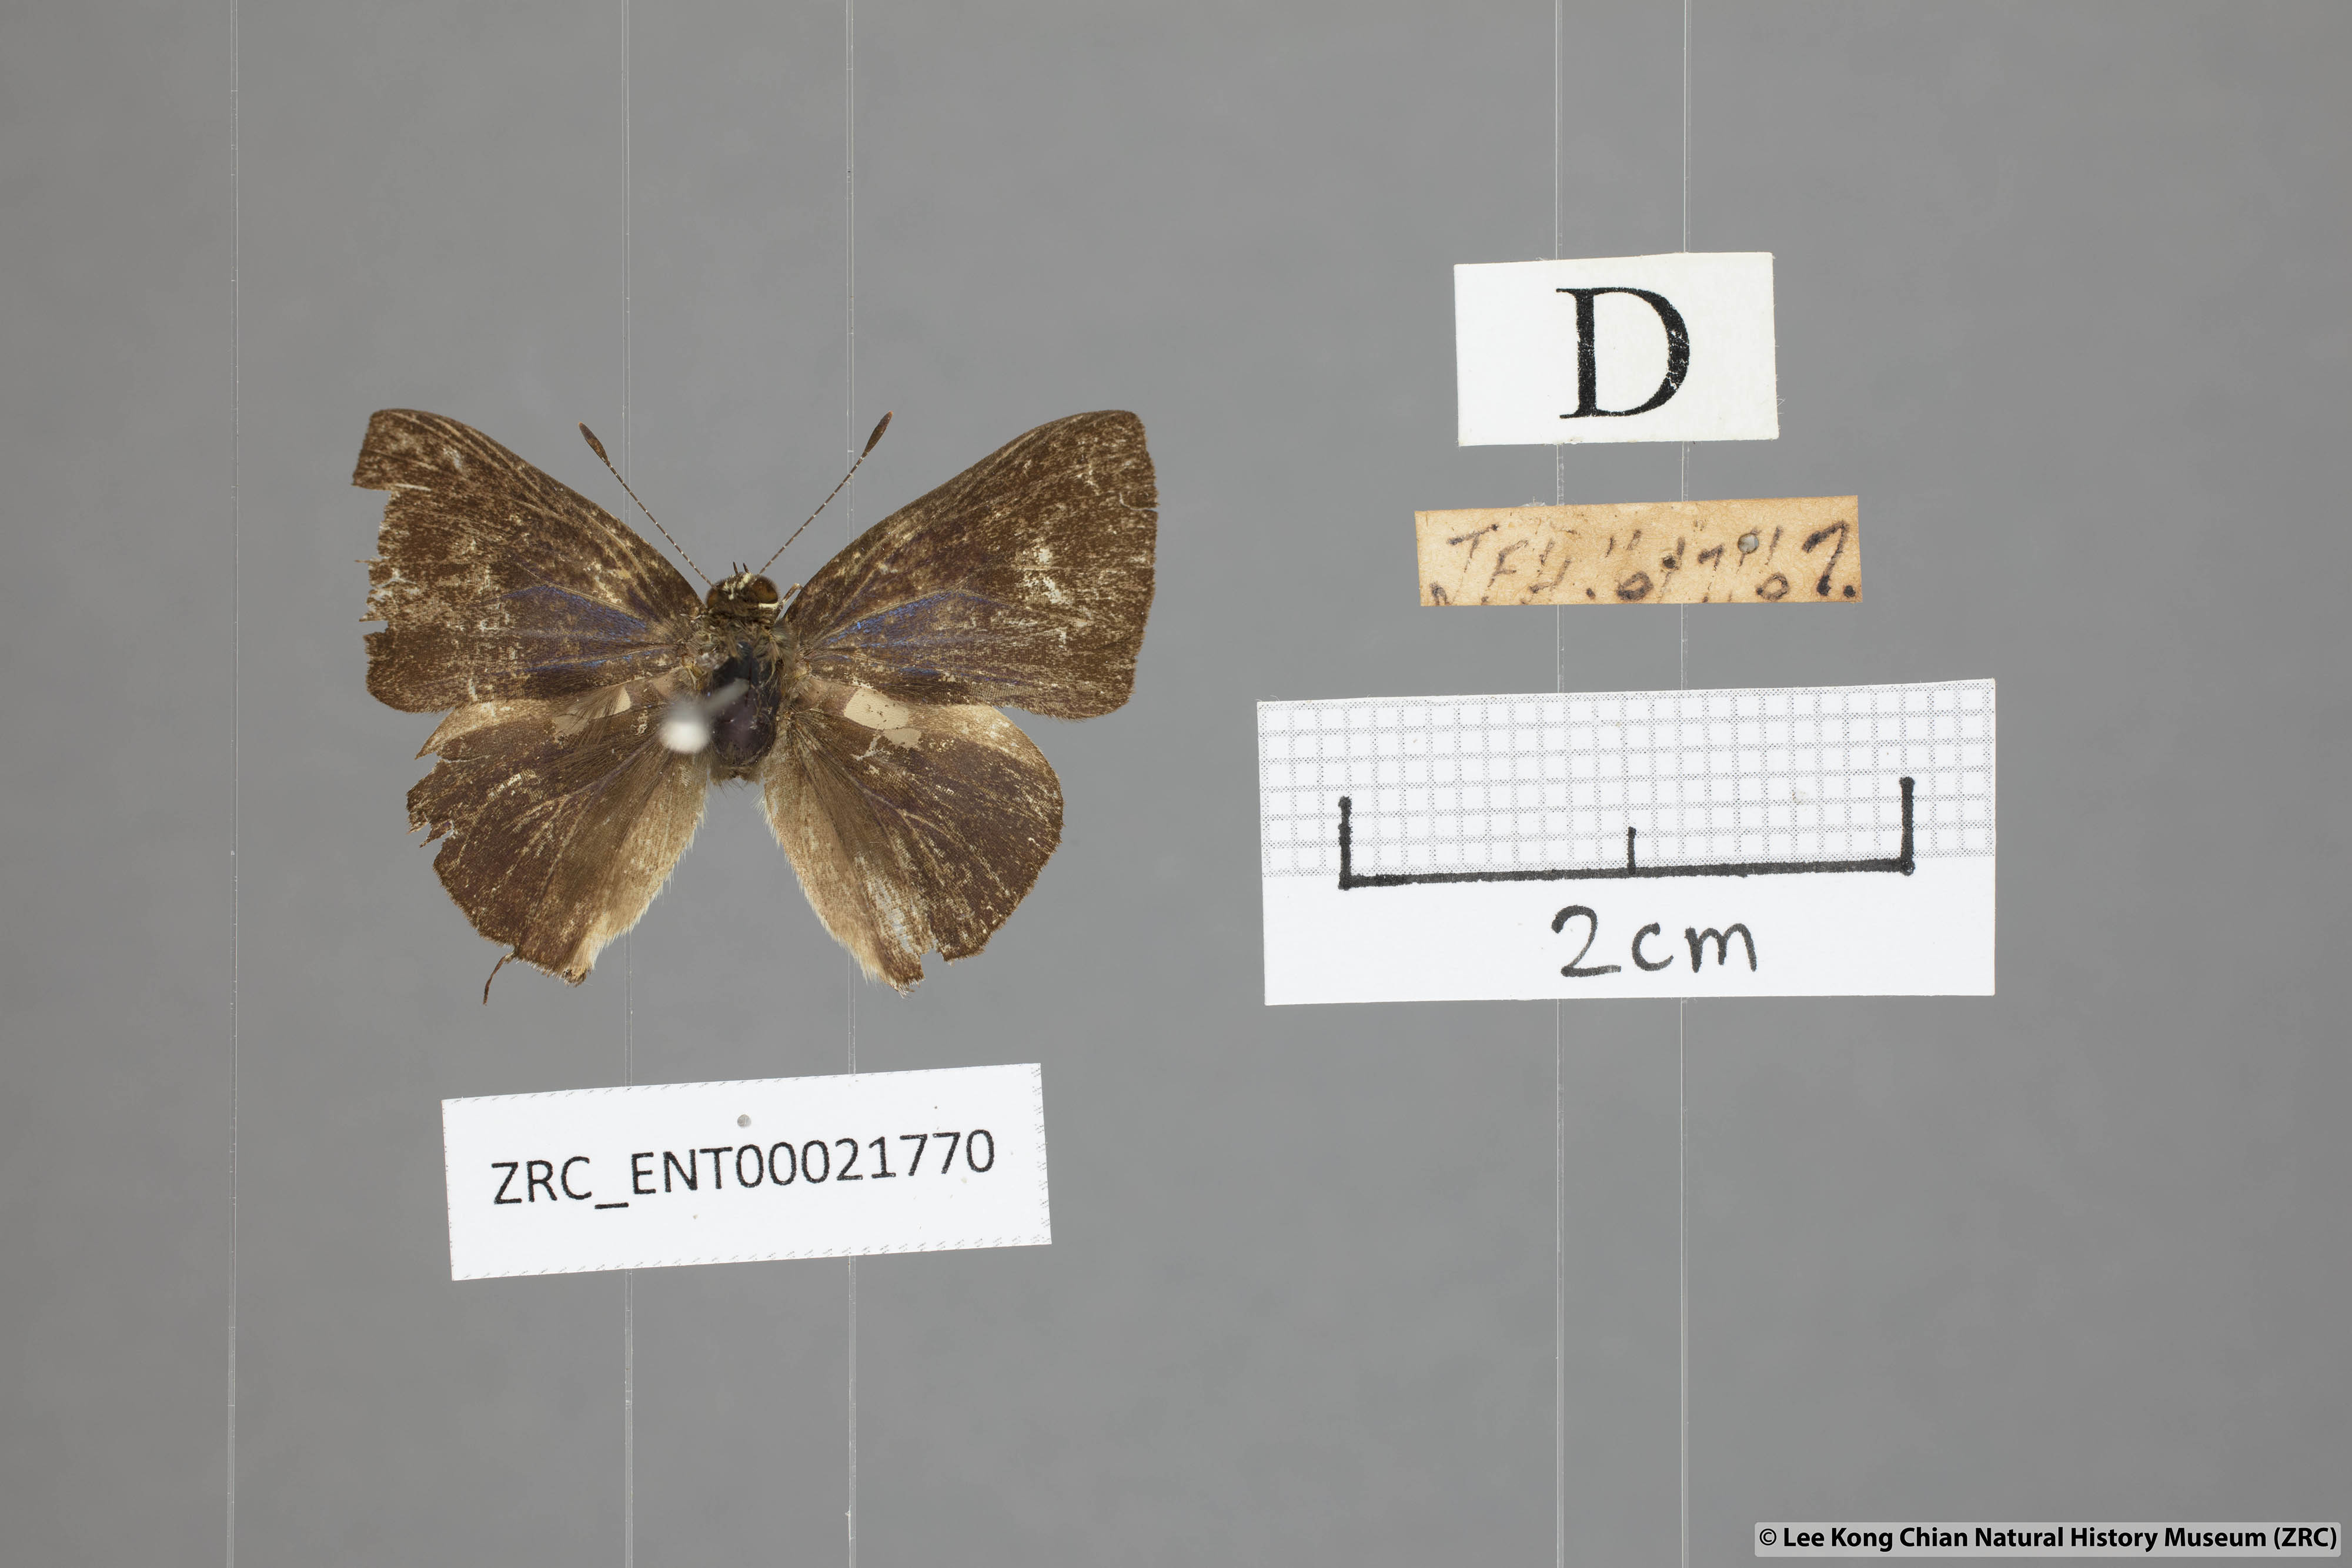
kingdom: Animalia
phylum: Arthropoda
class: Insecta
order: Lepidoptera
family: Lycaenidae
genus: Rapala
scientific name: Rapala
